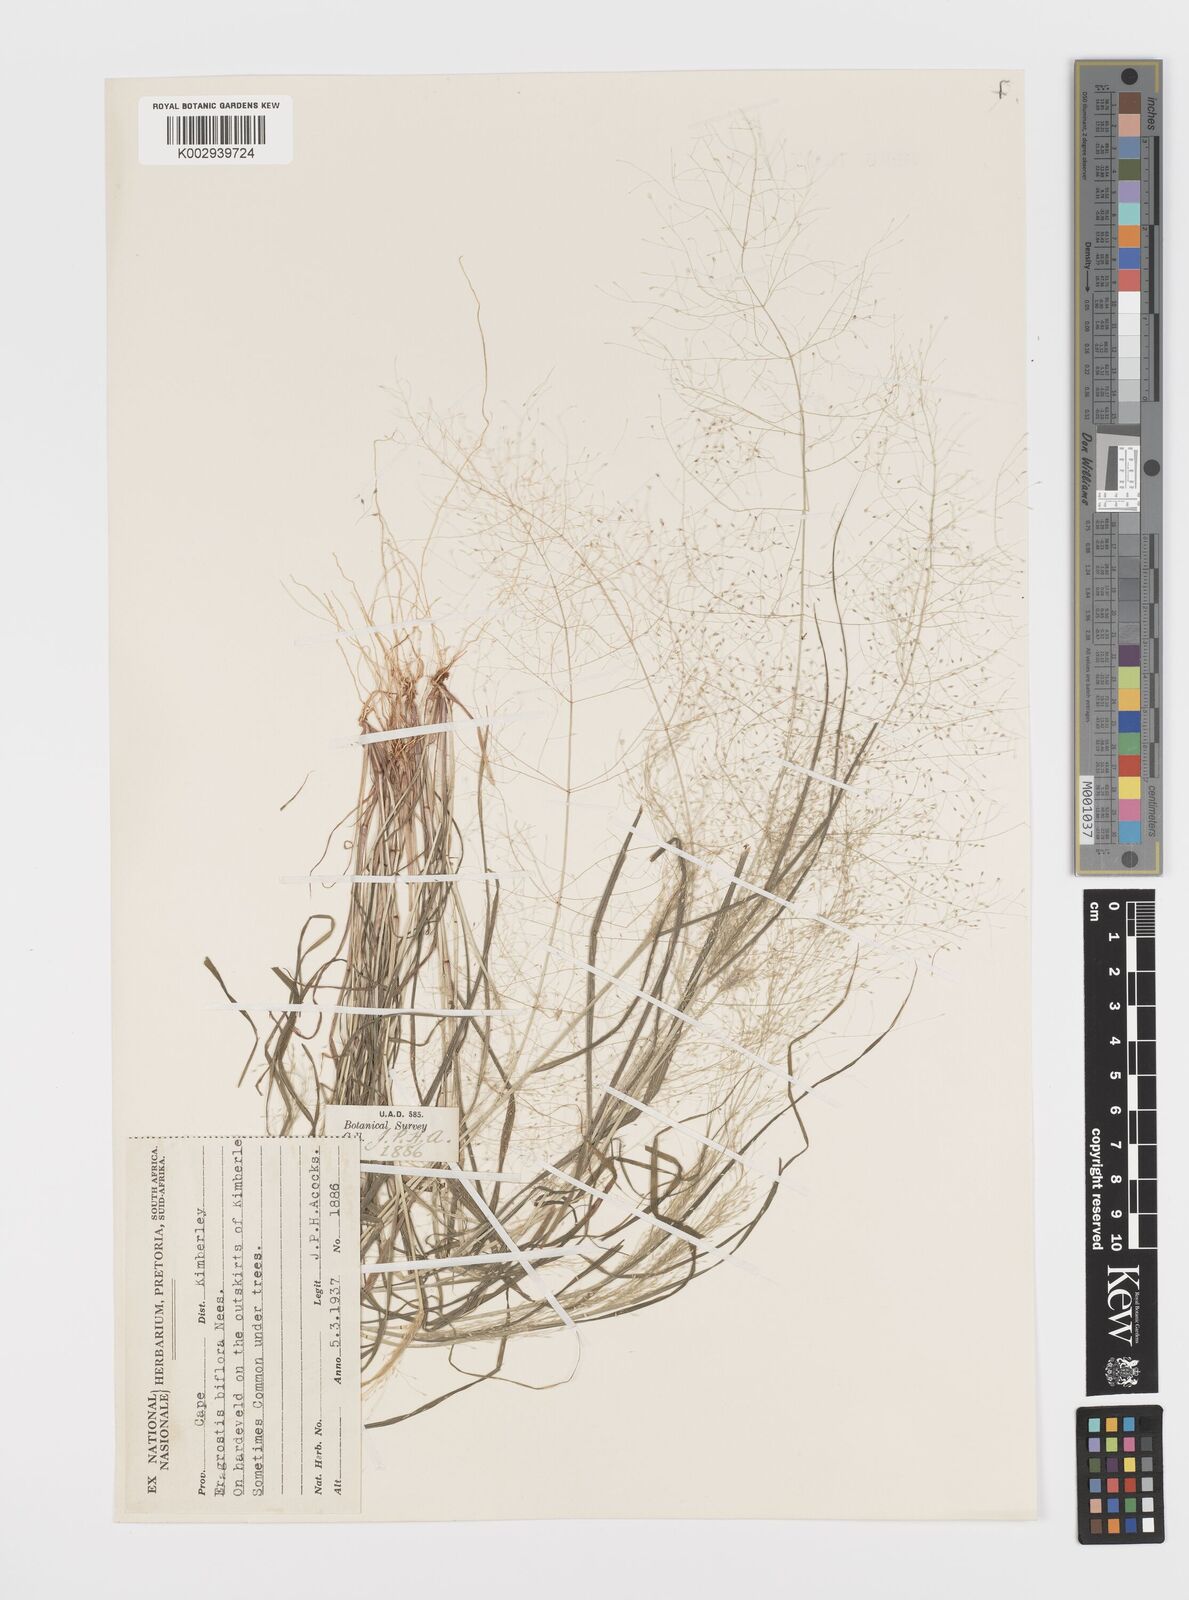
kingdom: Plantae
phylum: Tracheophyta
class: Liliopsida
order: Poales
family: Poaceae
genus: Eragrostis
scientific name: Eragrostis biflora
